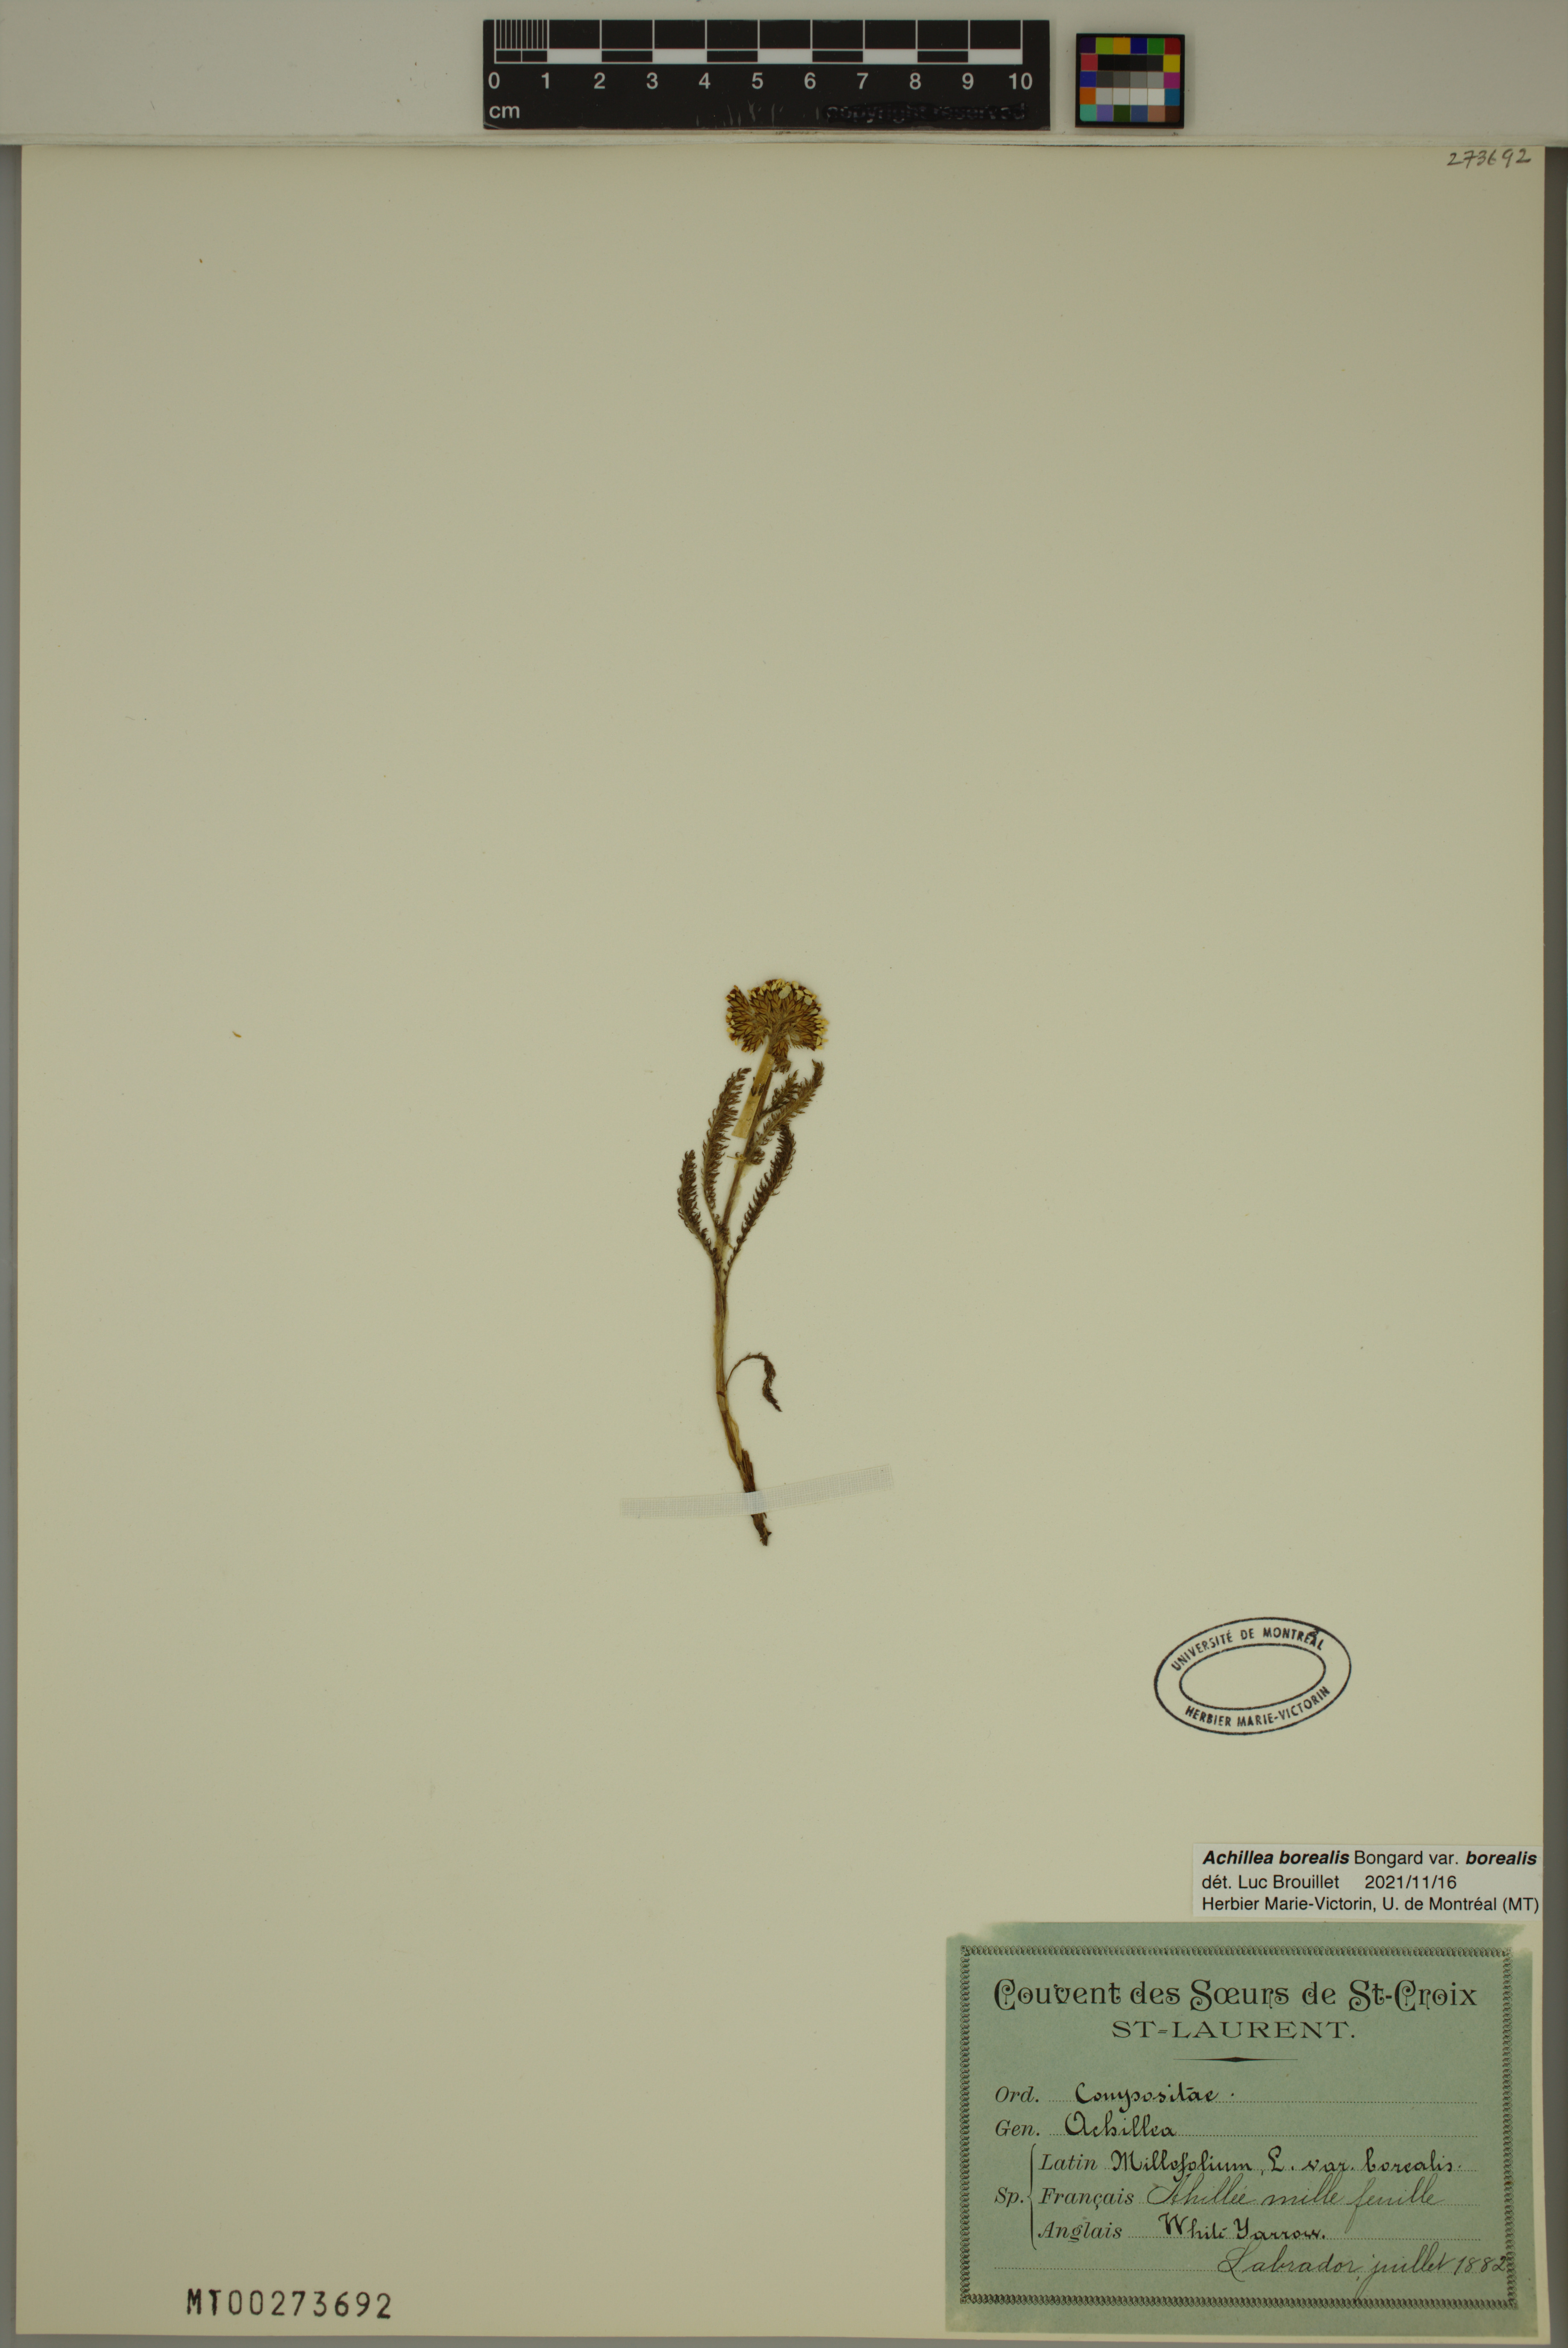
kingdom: Plantae
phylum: Tracheophyta
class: Magnoliopsida
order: Asterales
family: Asteraceae
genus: Achillea
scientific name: Achillea millefolium
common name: Yarrow
